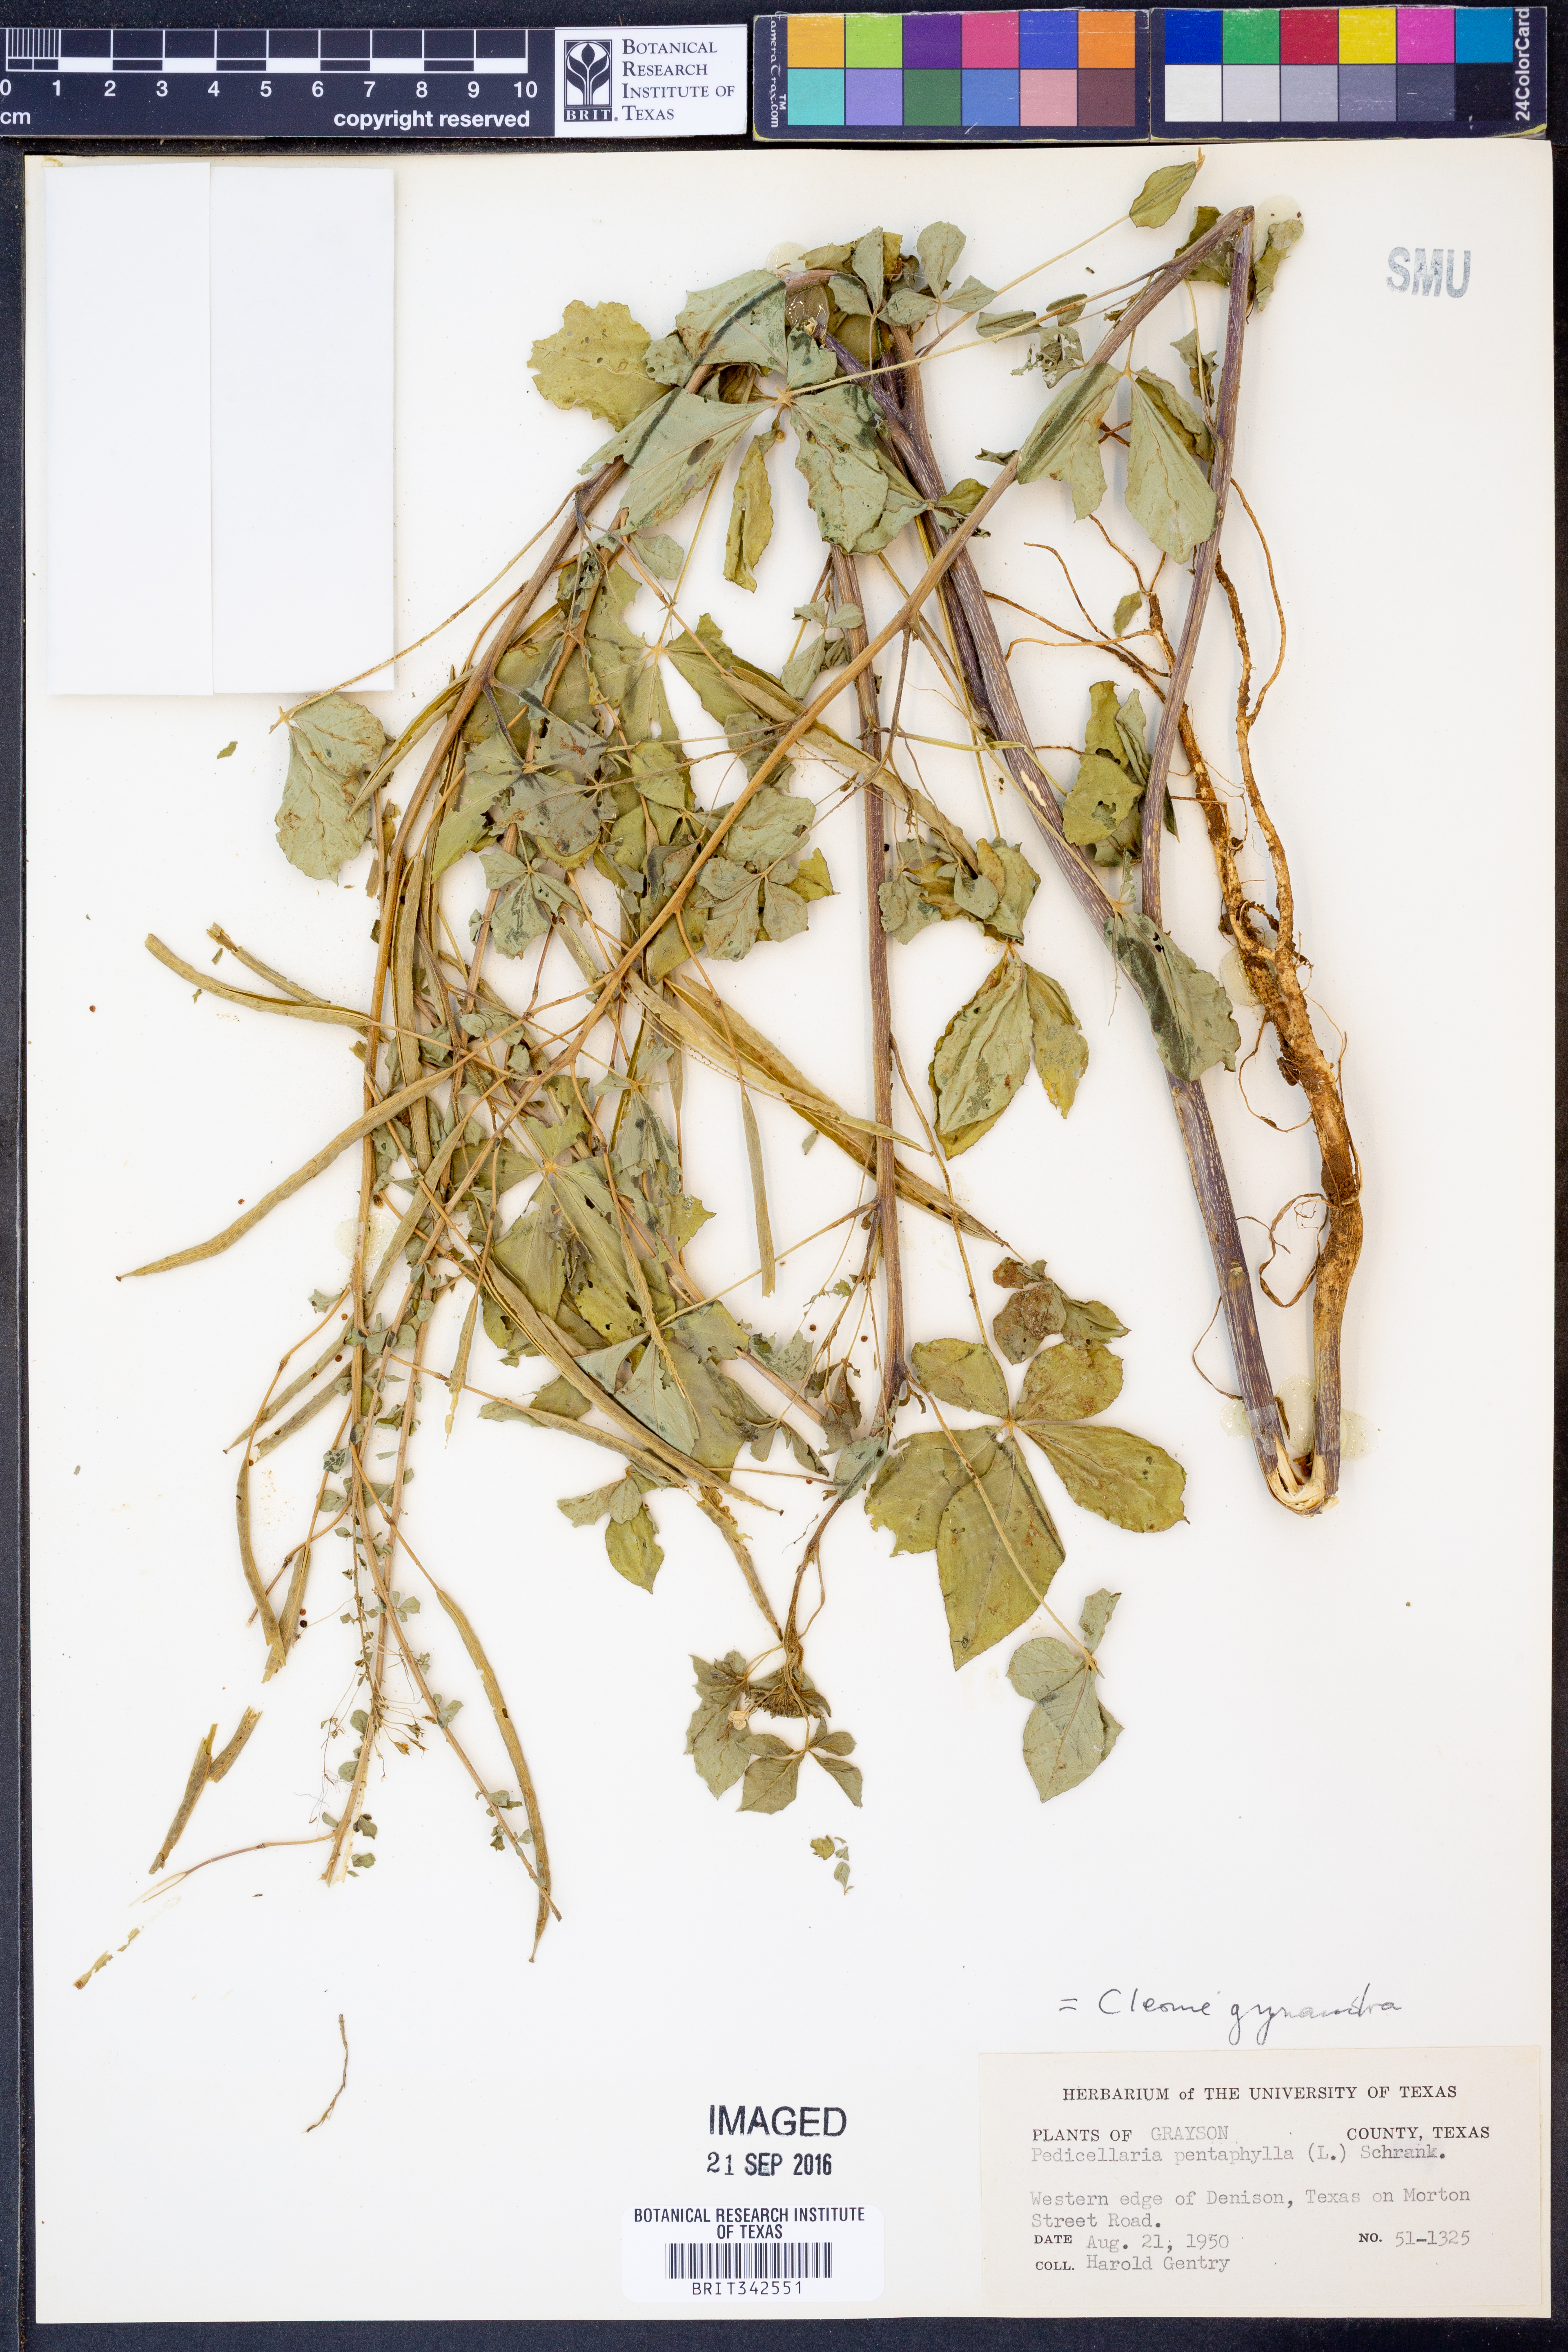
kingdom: Plantae
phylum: Tracheophyta
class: Magnoliopsida
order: Brassicales
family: Cleomaceae
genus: Gynandropsis
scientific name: Gynandropsis gynandra
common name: Spiderwisp
